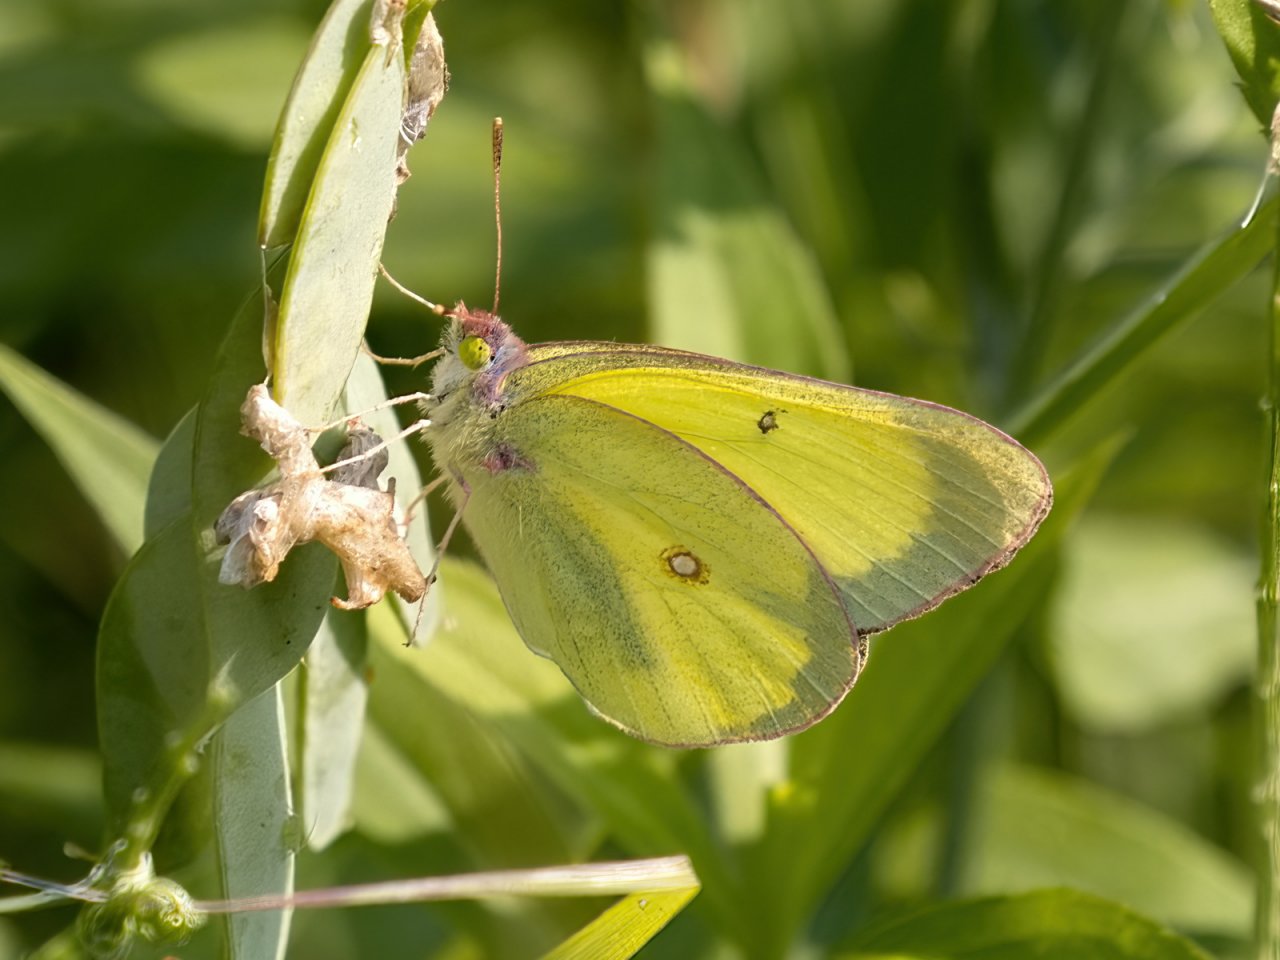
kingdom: Animalia
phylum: Arthropoda
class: Insecta
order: Lepidoptera
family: Pieridae
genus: Colias
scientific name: Colias interior
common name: Pink-edged Sulphur
